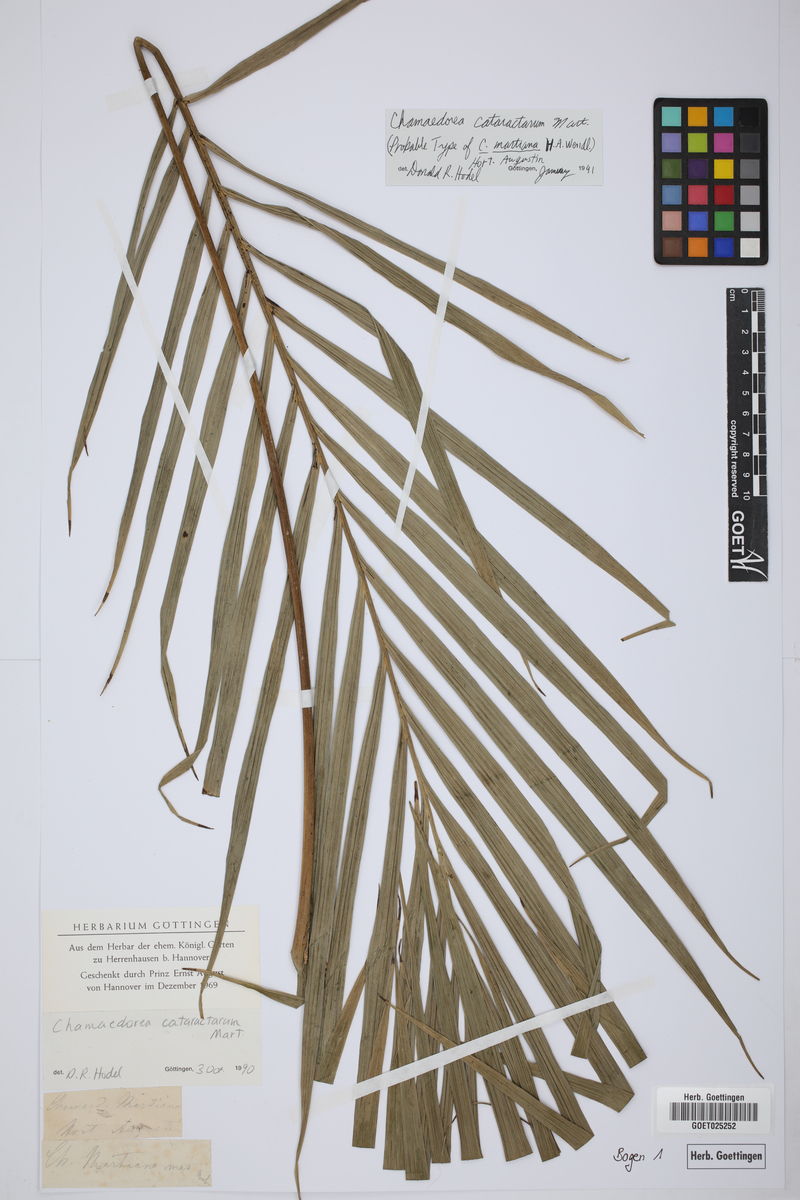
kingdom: Plantae
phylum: Tracheophyta
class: Liliopsida
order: Arecales
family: Arecaceae
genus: Chamaedorea
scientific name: Chamaedorea cataractarum
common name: Cascade palm
